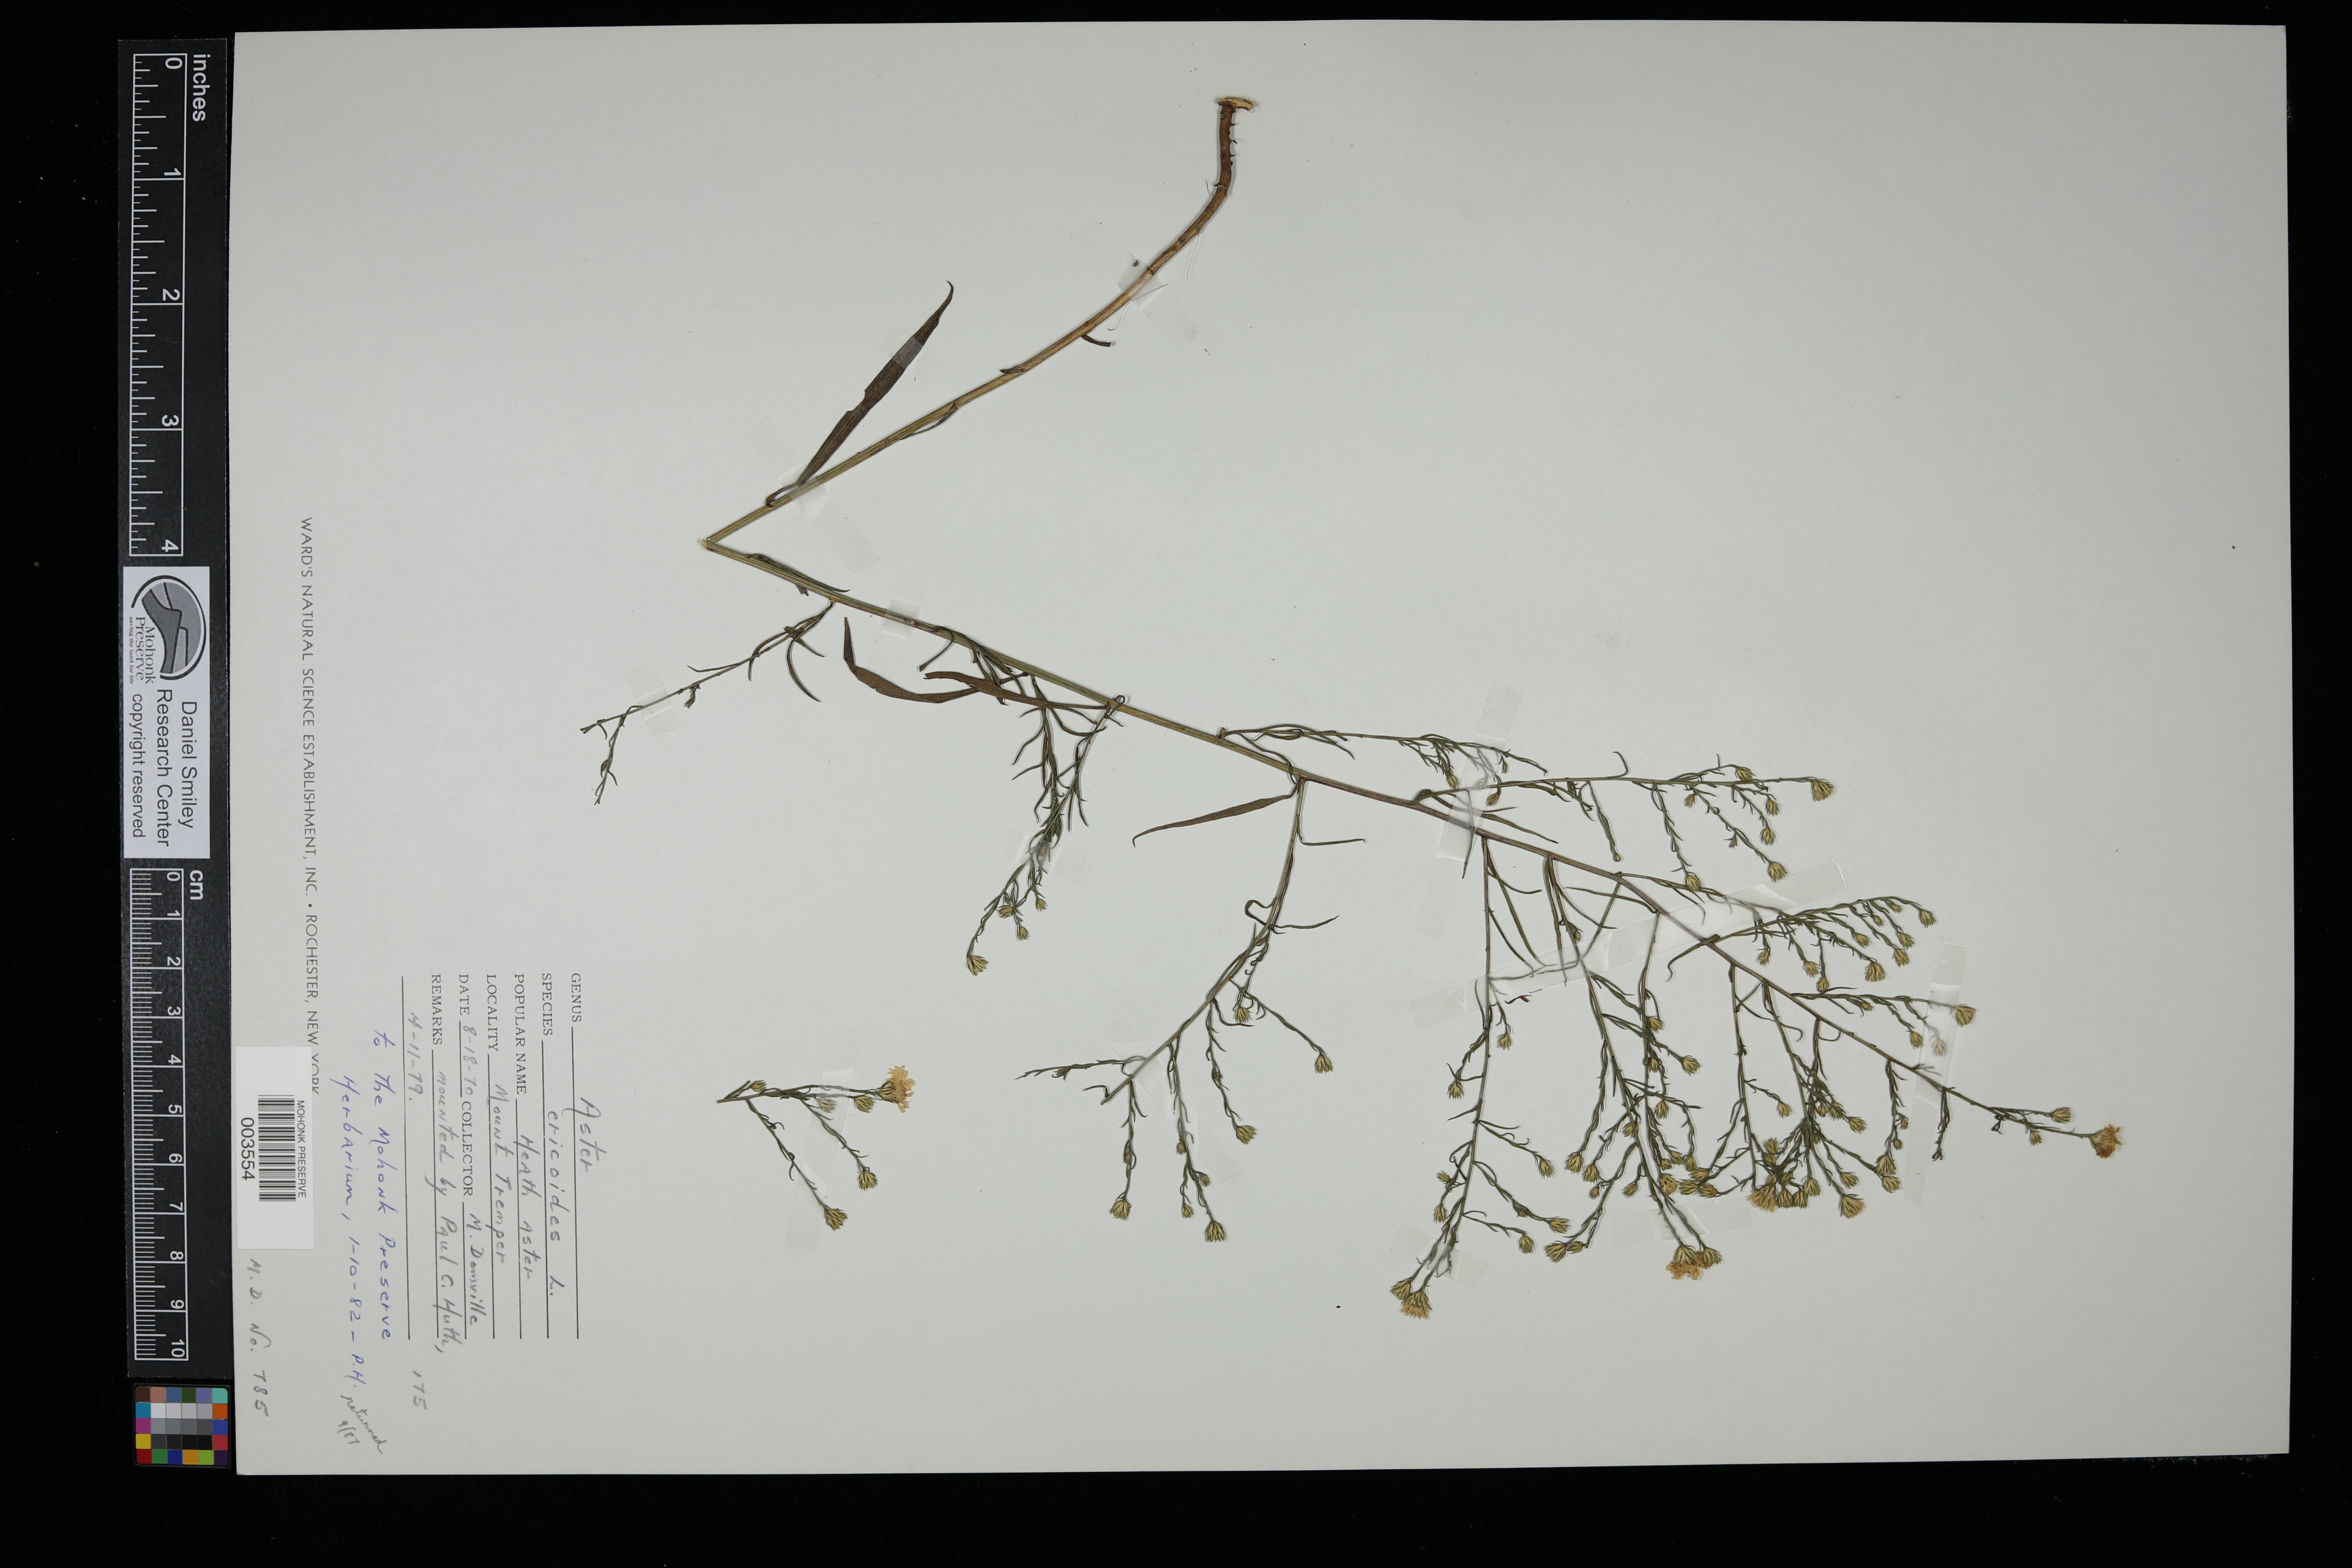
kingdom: Plantae
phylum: Tracheophyta
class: Magnoliopsida
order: Asterales
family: Asteraceae
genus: Symphyotrichum
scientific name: Symphyotrichum ericoides
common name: Heath aster
